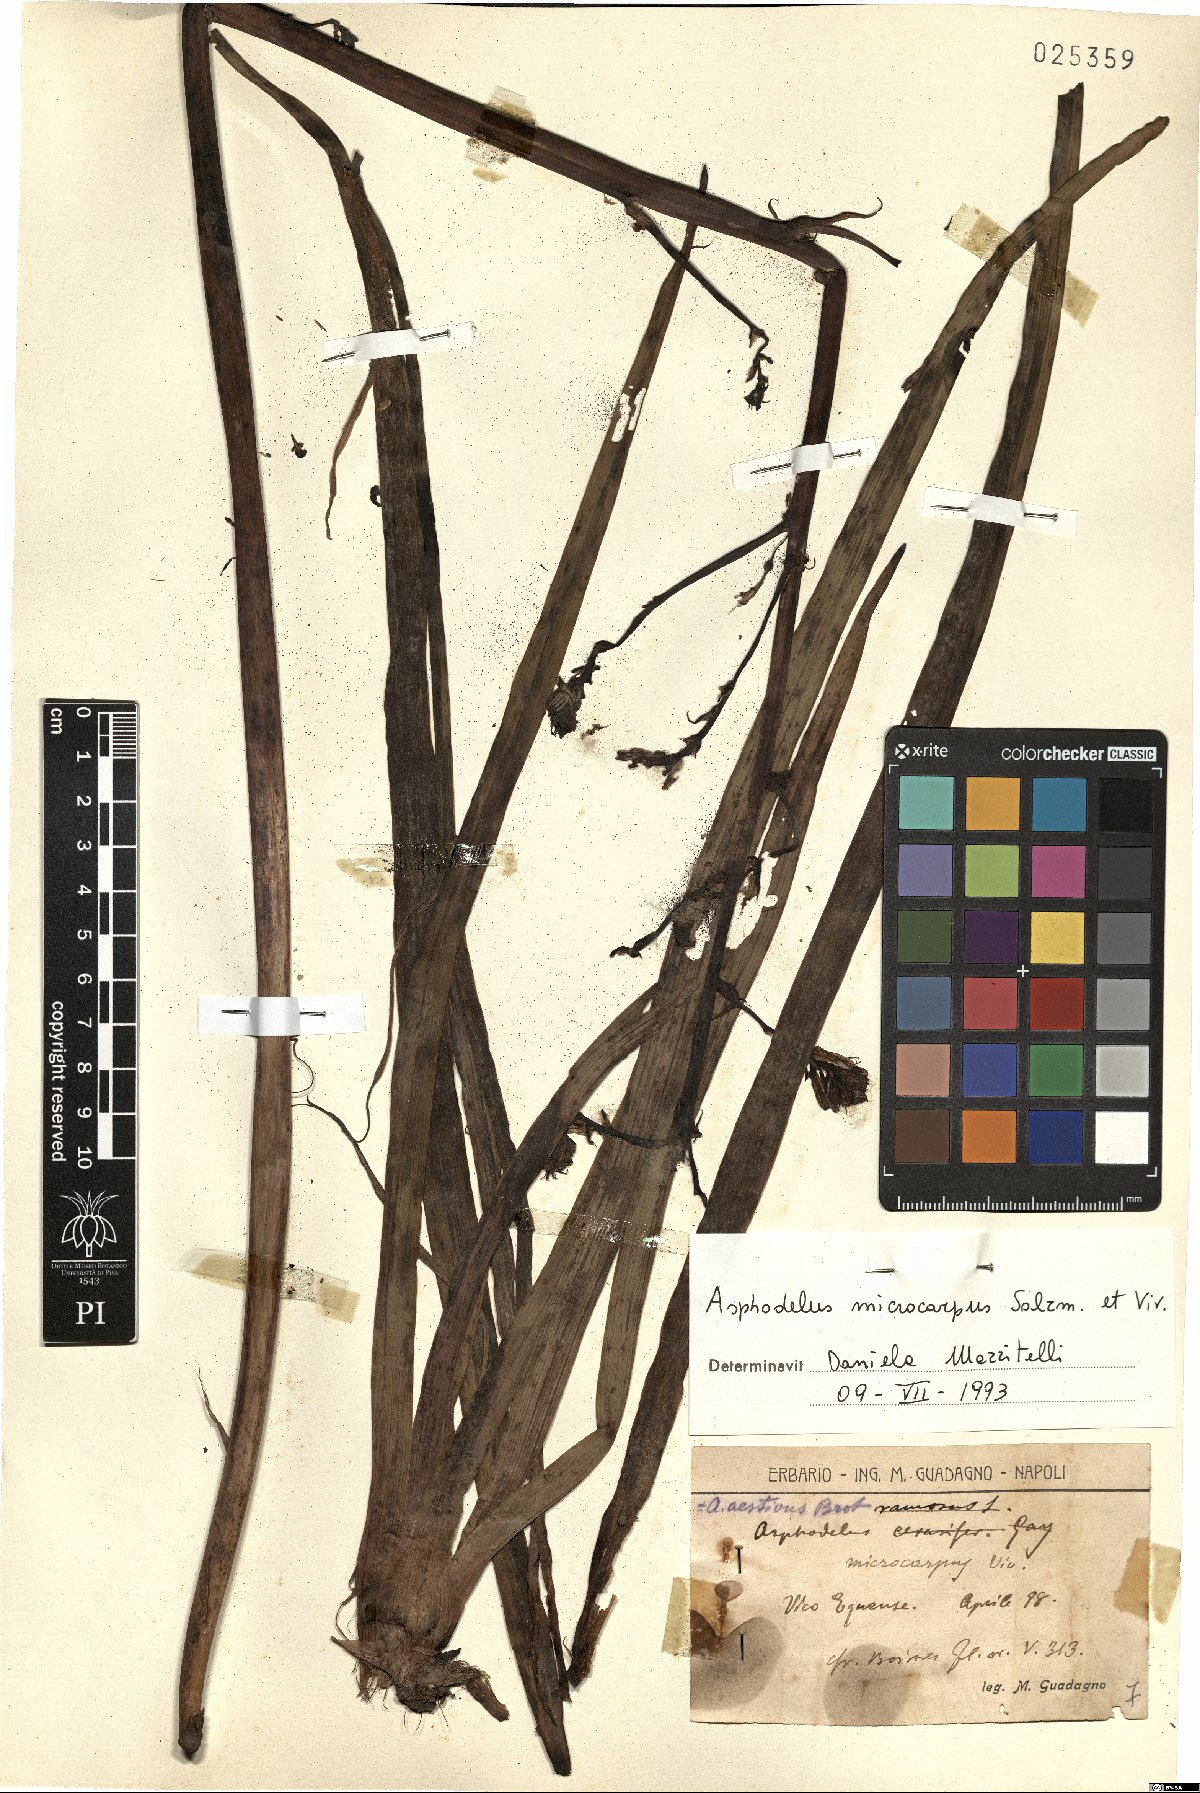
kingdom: Plantae
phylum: Tracheophyta
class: Liliopsida
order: Asparagales
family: Asphodelaceae
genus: Asphodelus
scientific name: Asphodelus ramosus
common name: Silverrod
